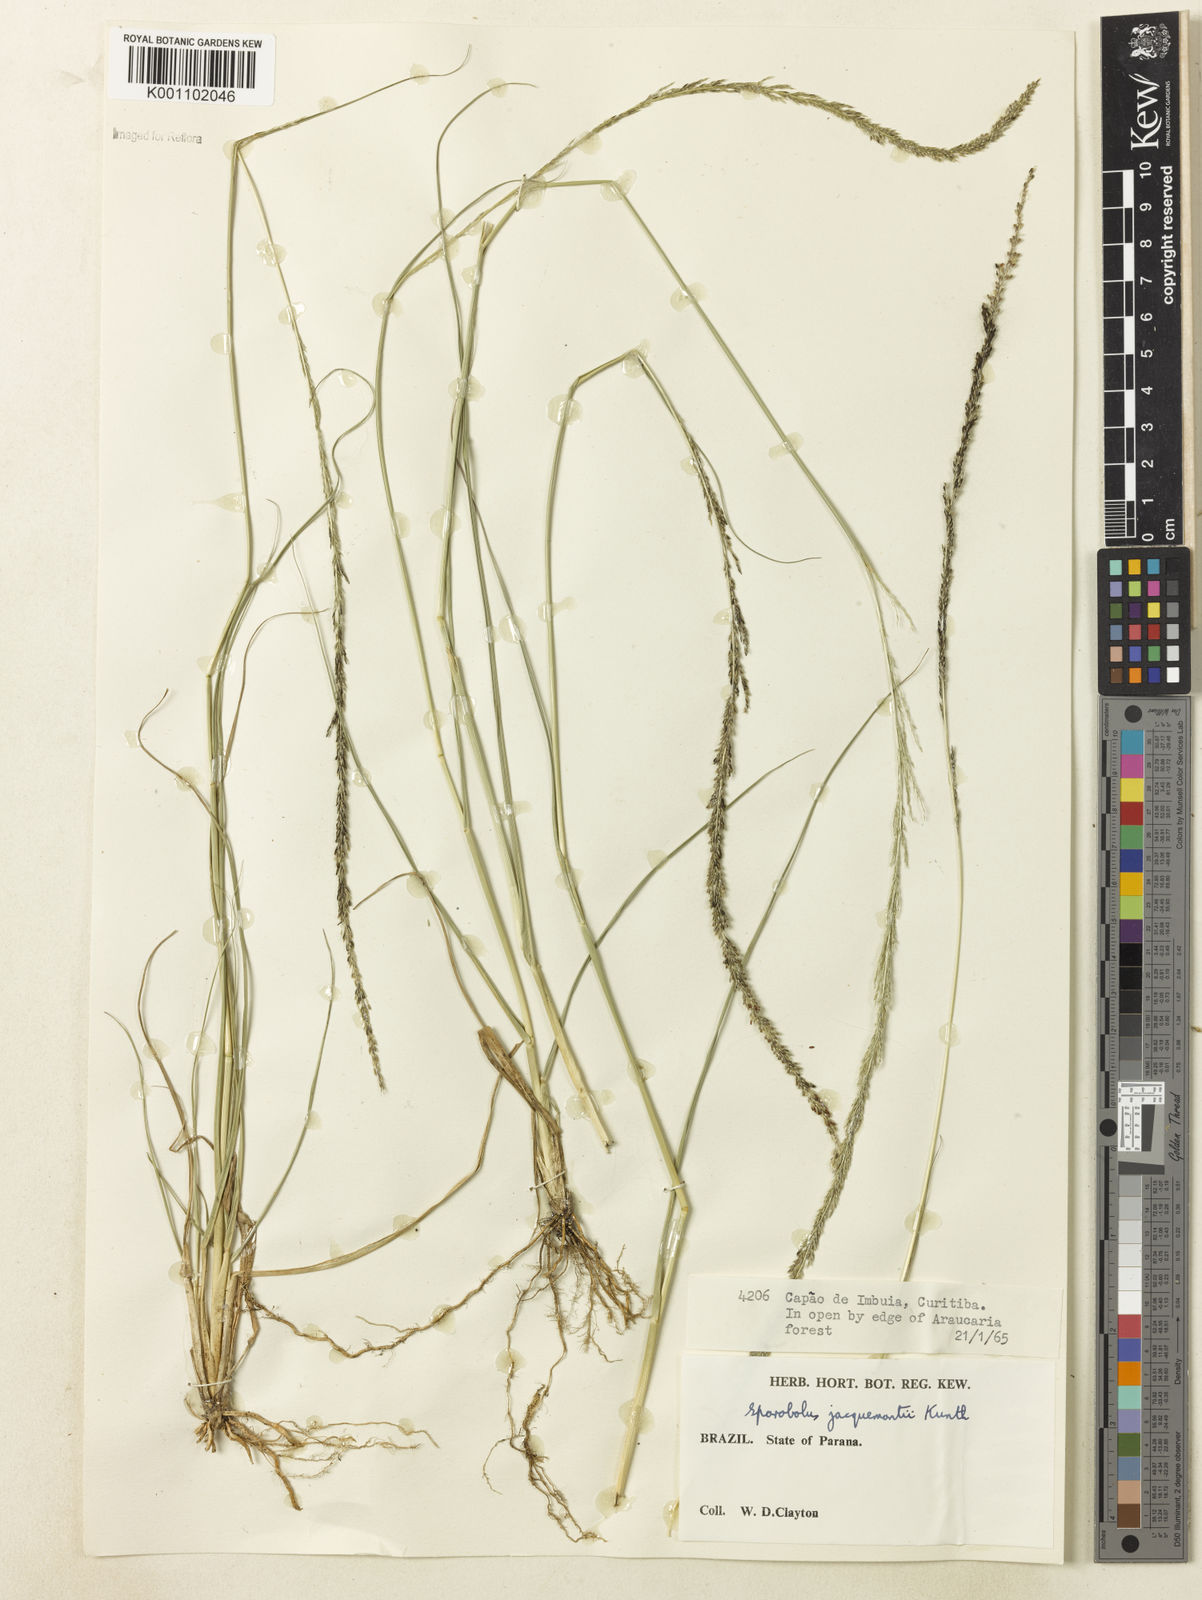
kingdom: Plantae
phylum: Tracheophyta
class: Liliopsida
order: Poales
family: Poaceae
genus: Sporobolus
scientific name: Sporobolus pyramidalis
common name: West indian dropseed
